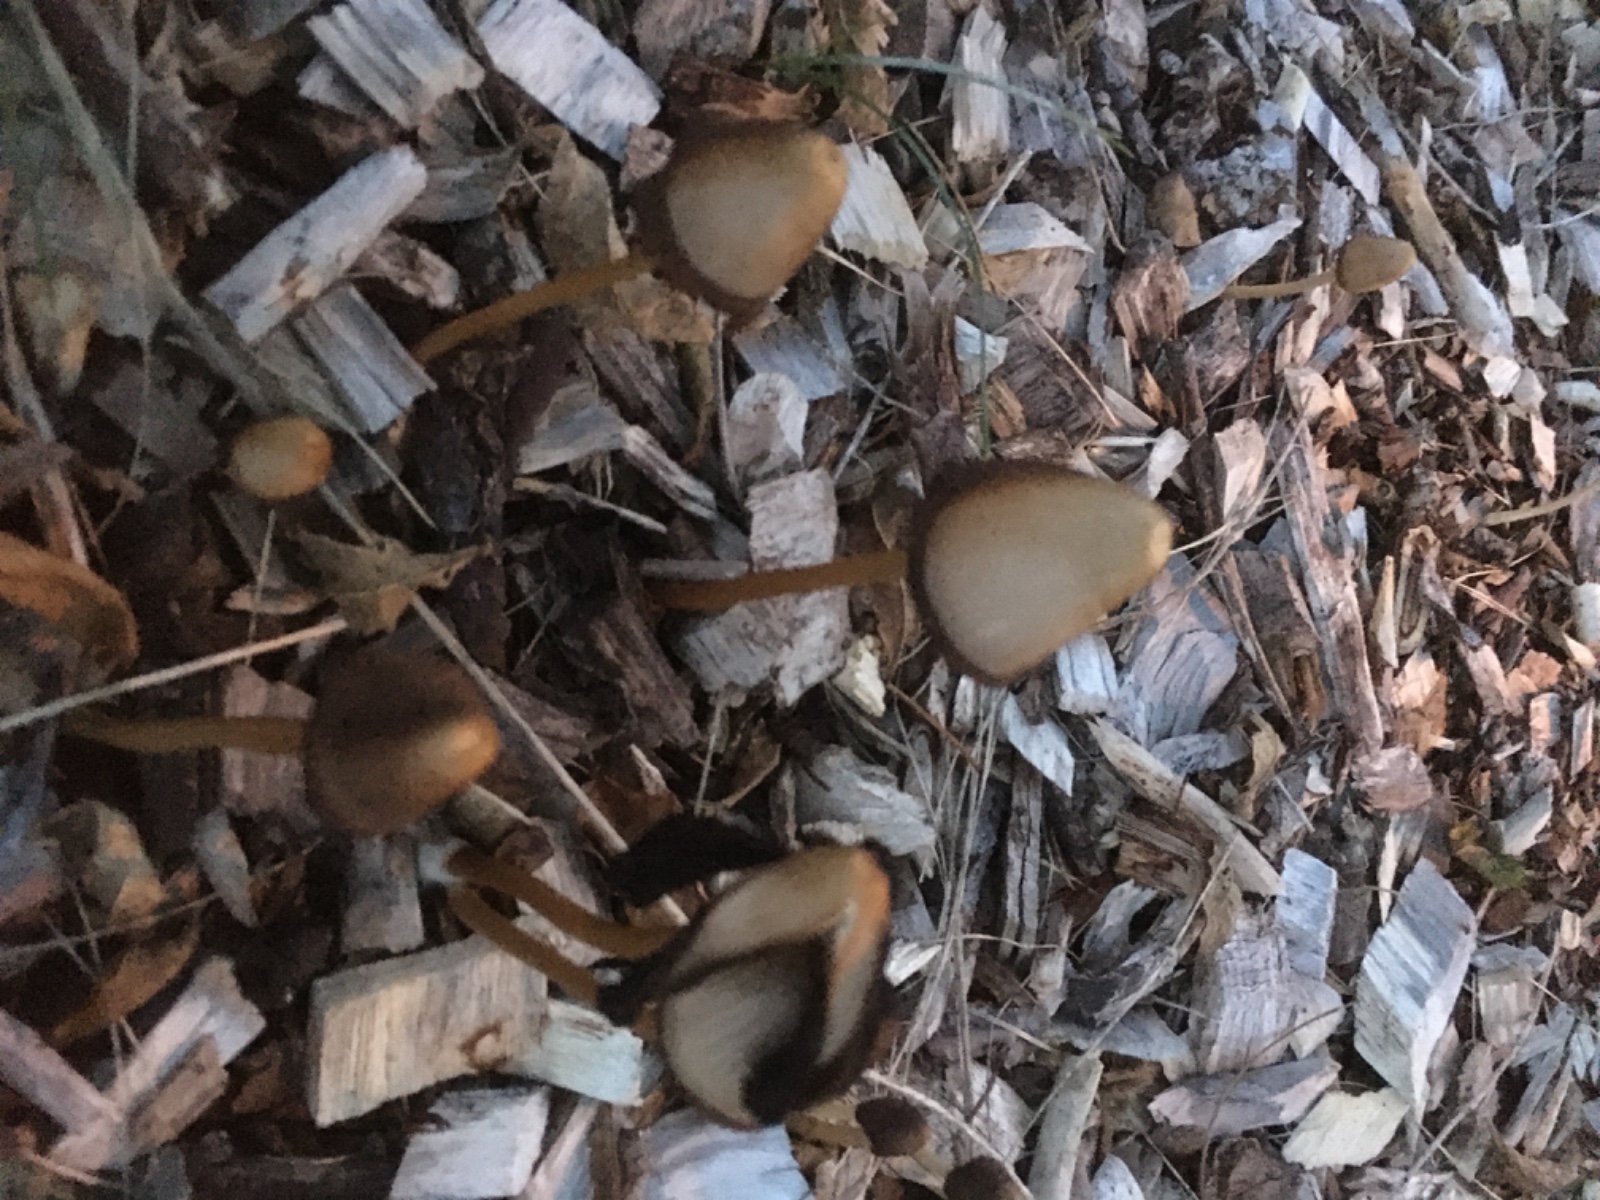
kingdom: Fungi
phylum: Basidiomycota
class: Agaricomycetes
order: Agaricales
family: Psathyrellaceae
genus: Parasola
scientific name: Parasola conopilea
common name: kegle-hjulhat
